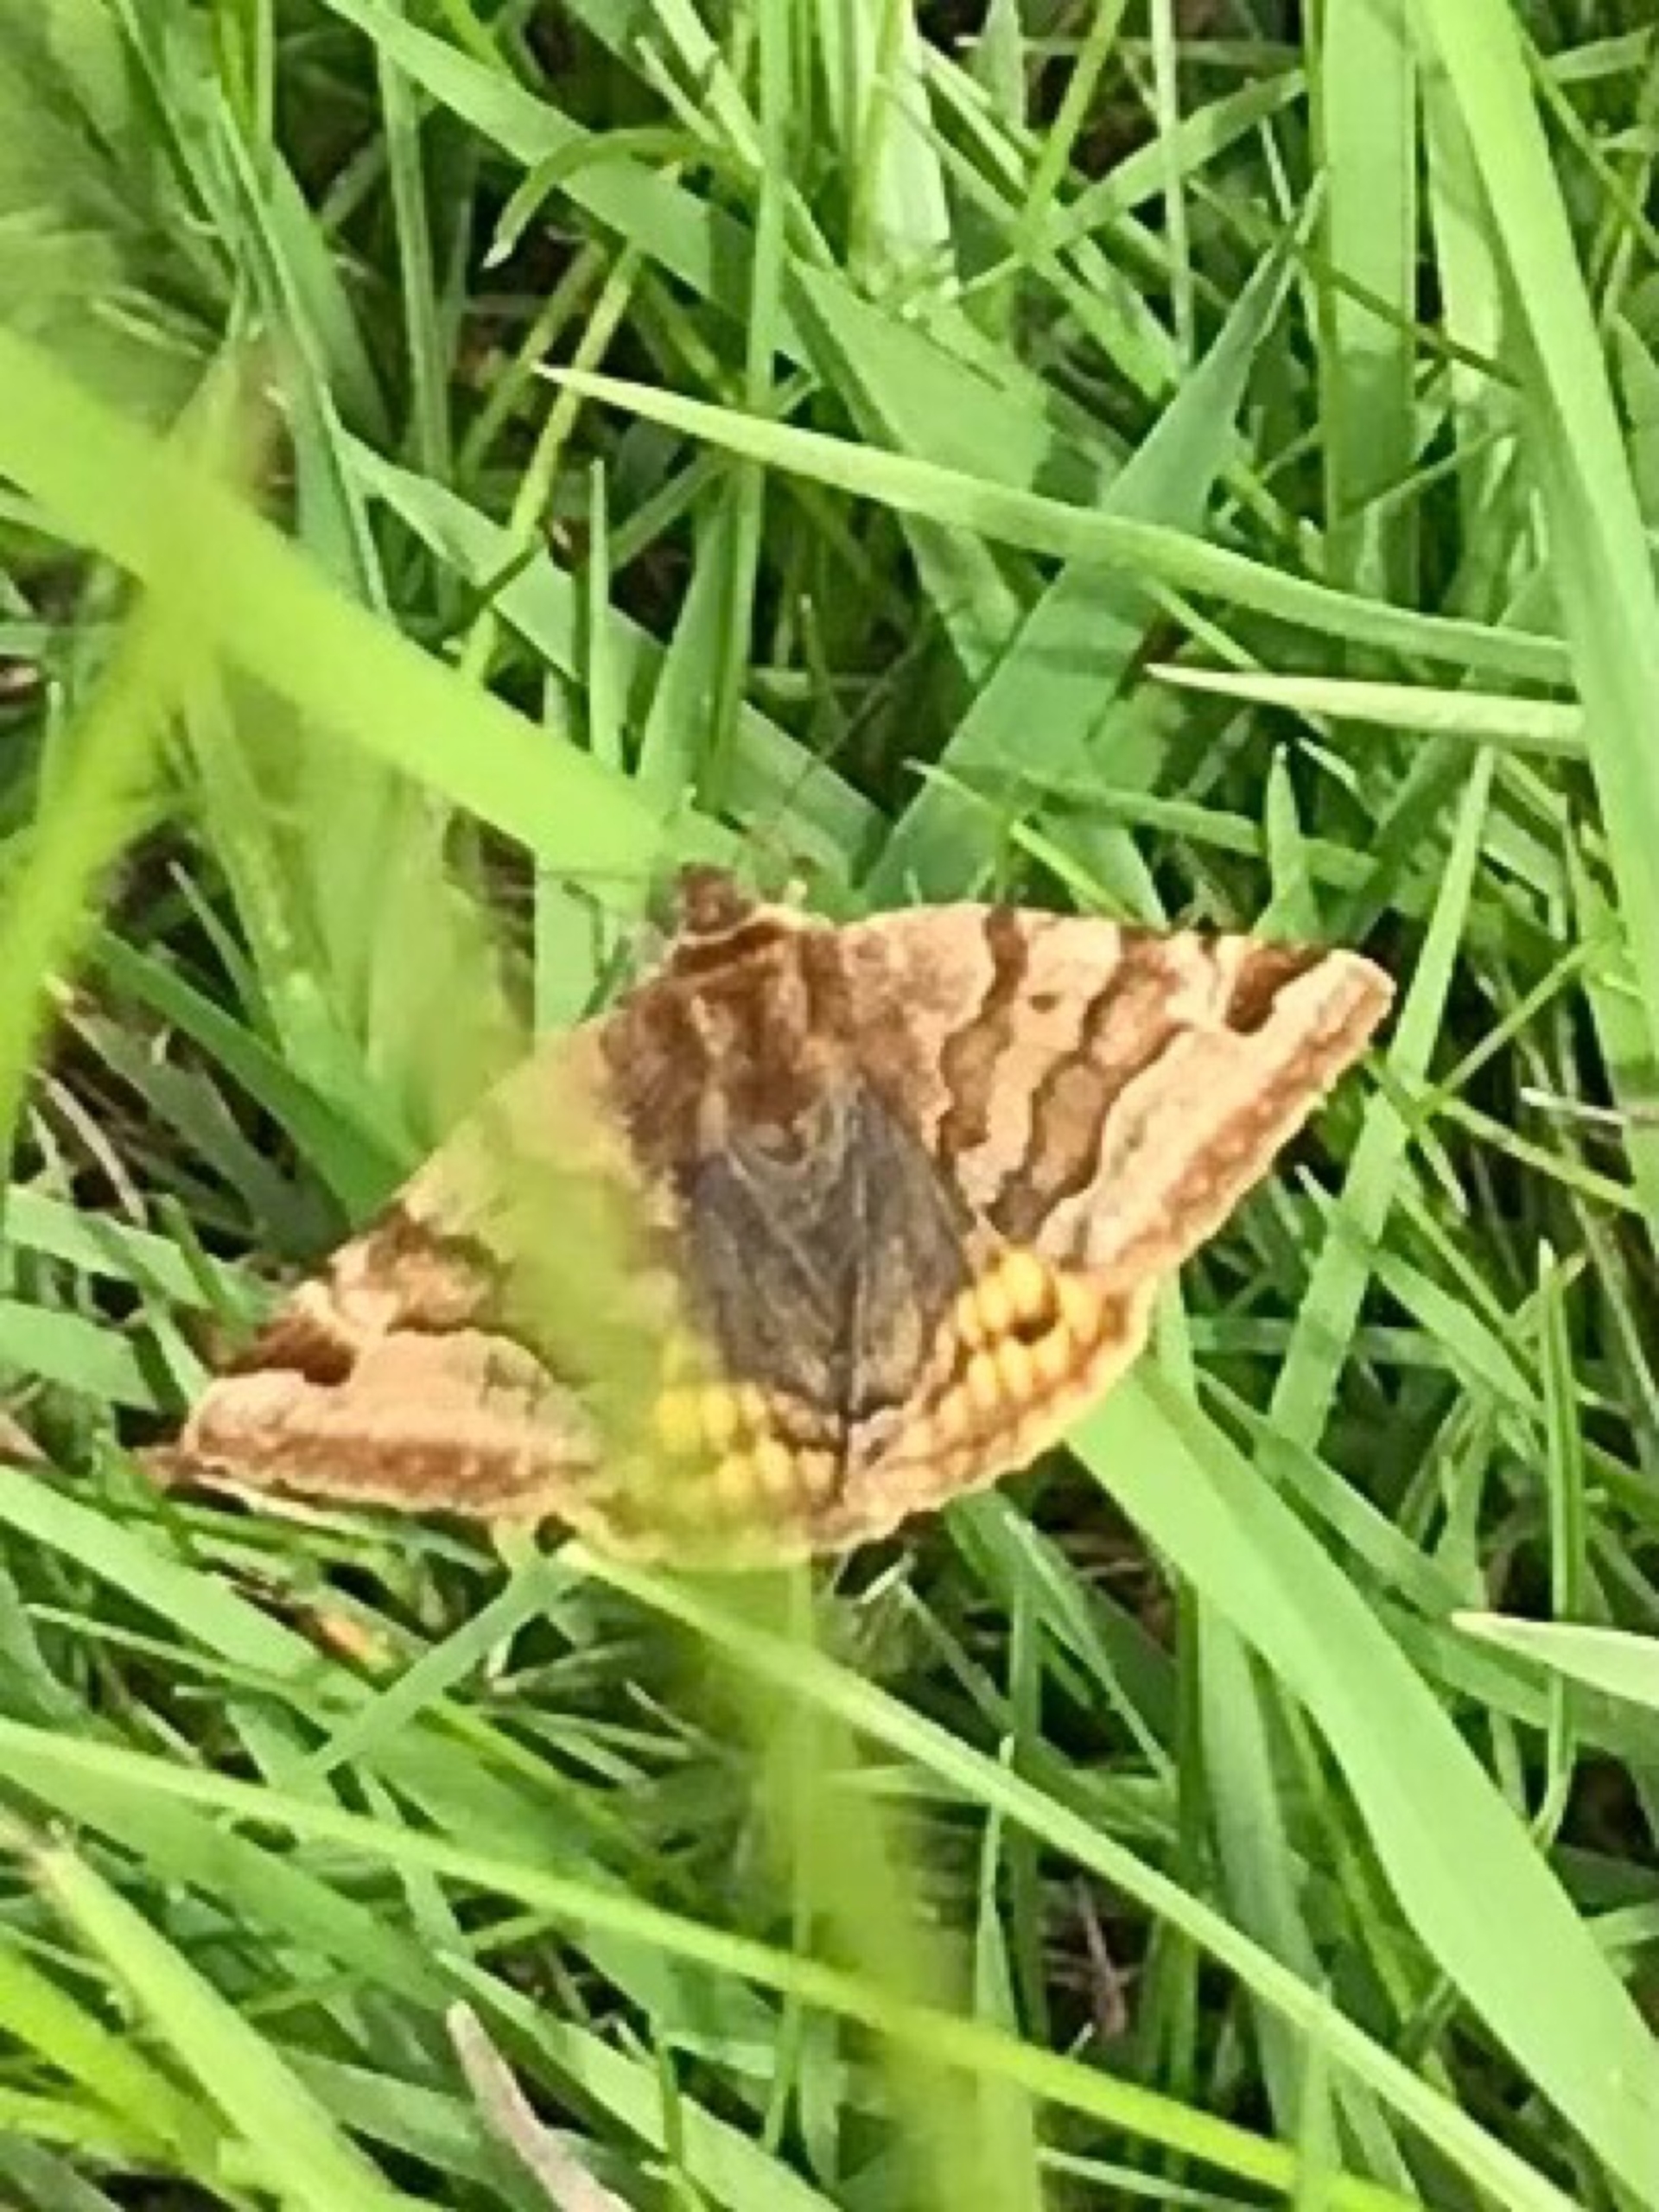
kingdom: Animalia
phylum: Arthropoda
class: Insecta
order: Lepidoptera
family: Erebidae
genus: Euclidia
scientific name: Euclidia glyphica
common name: Brun kløverugle
